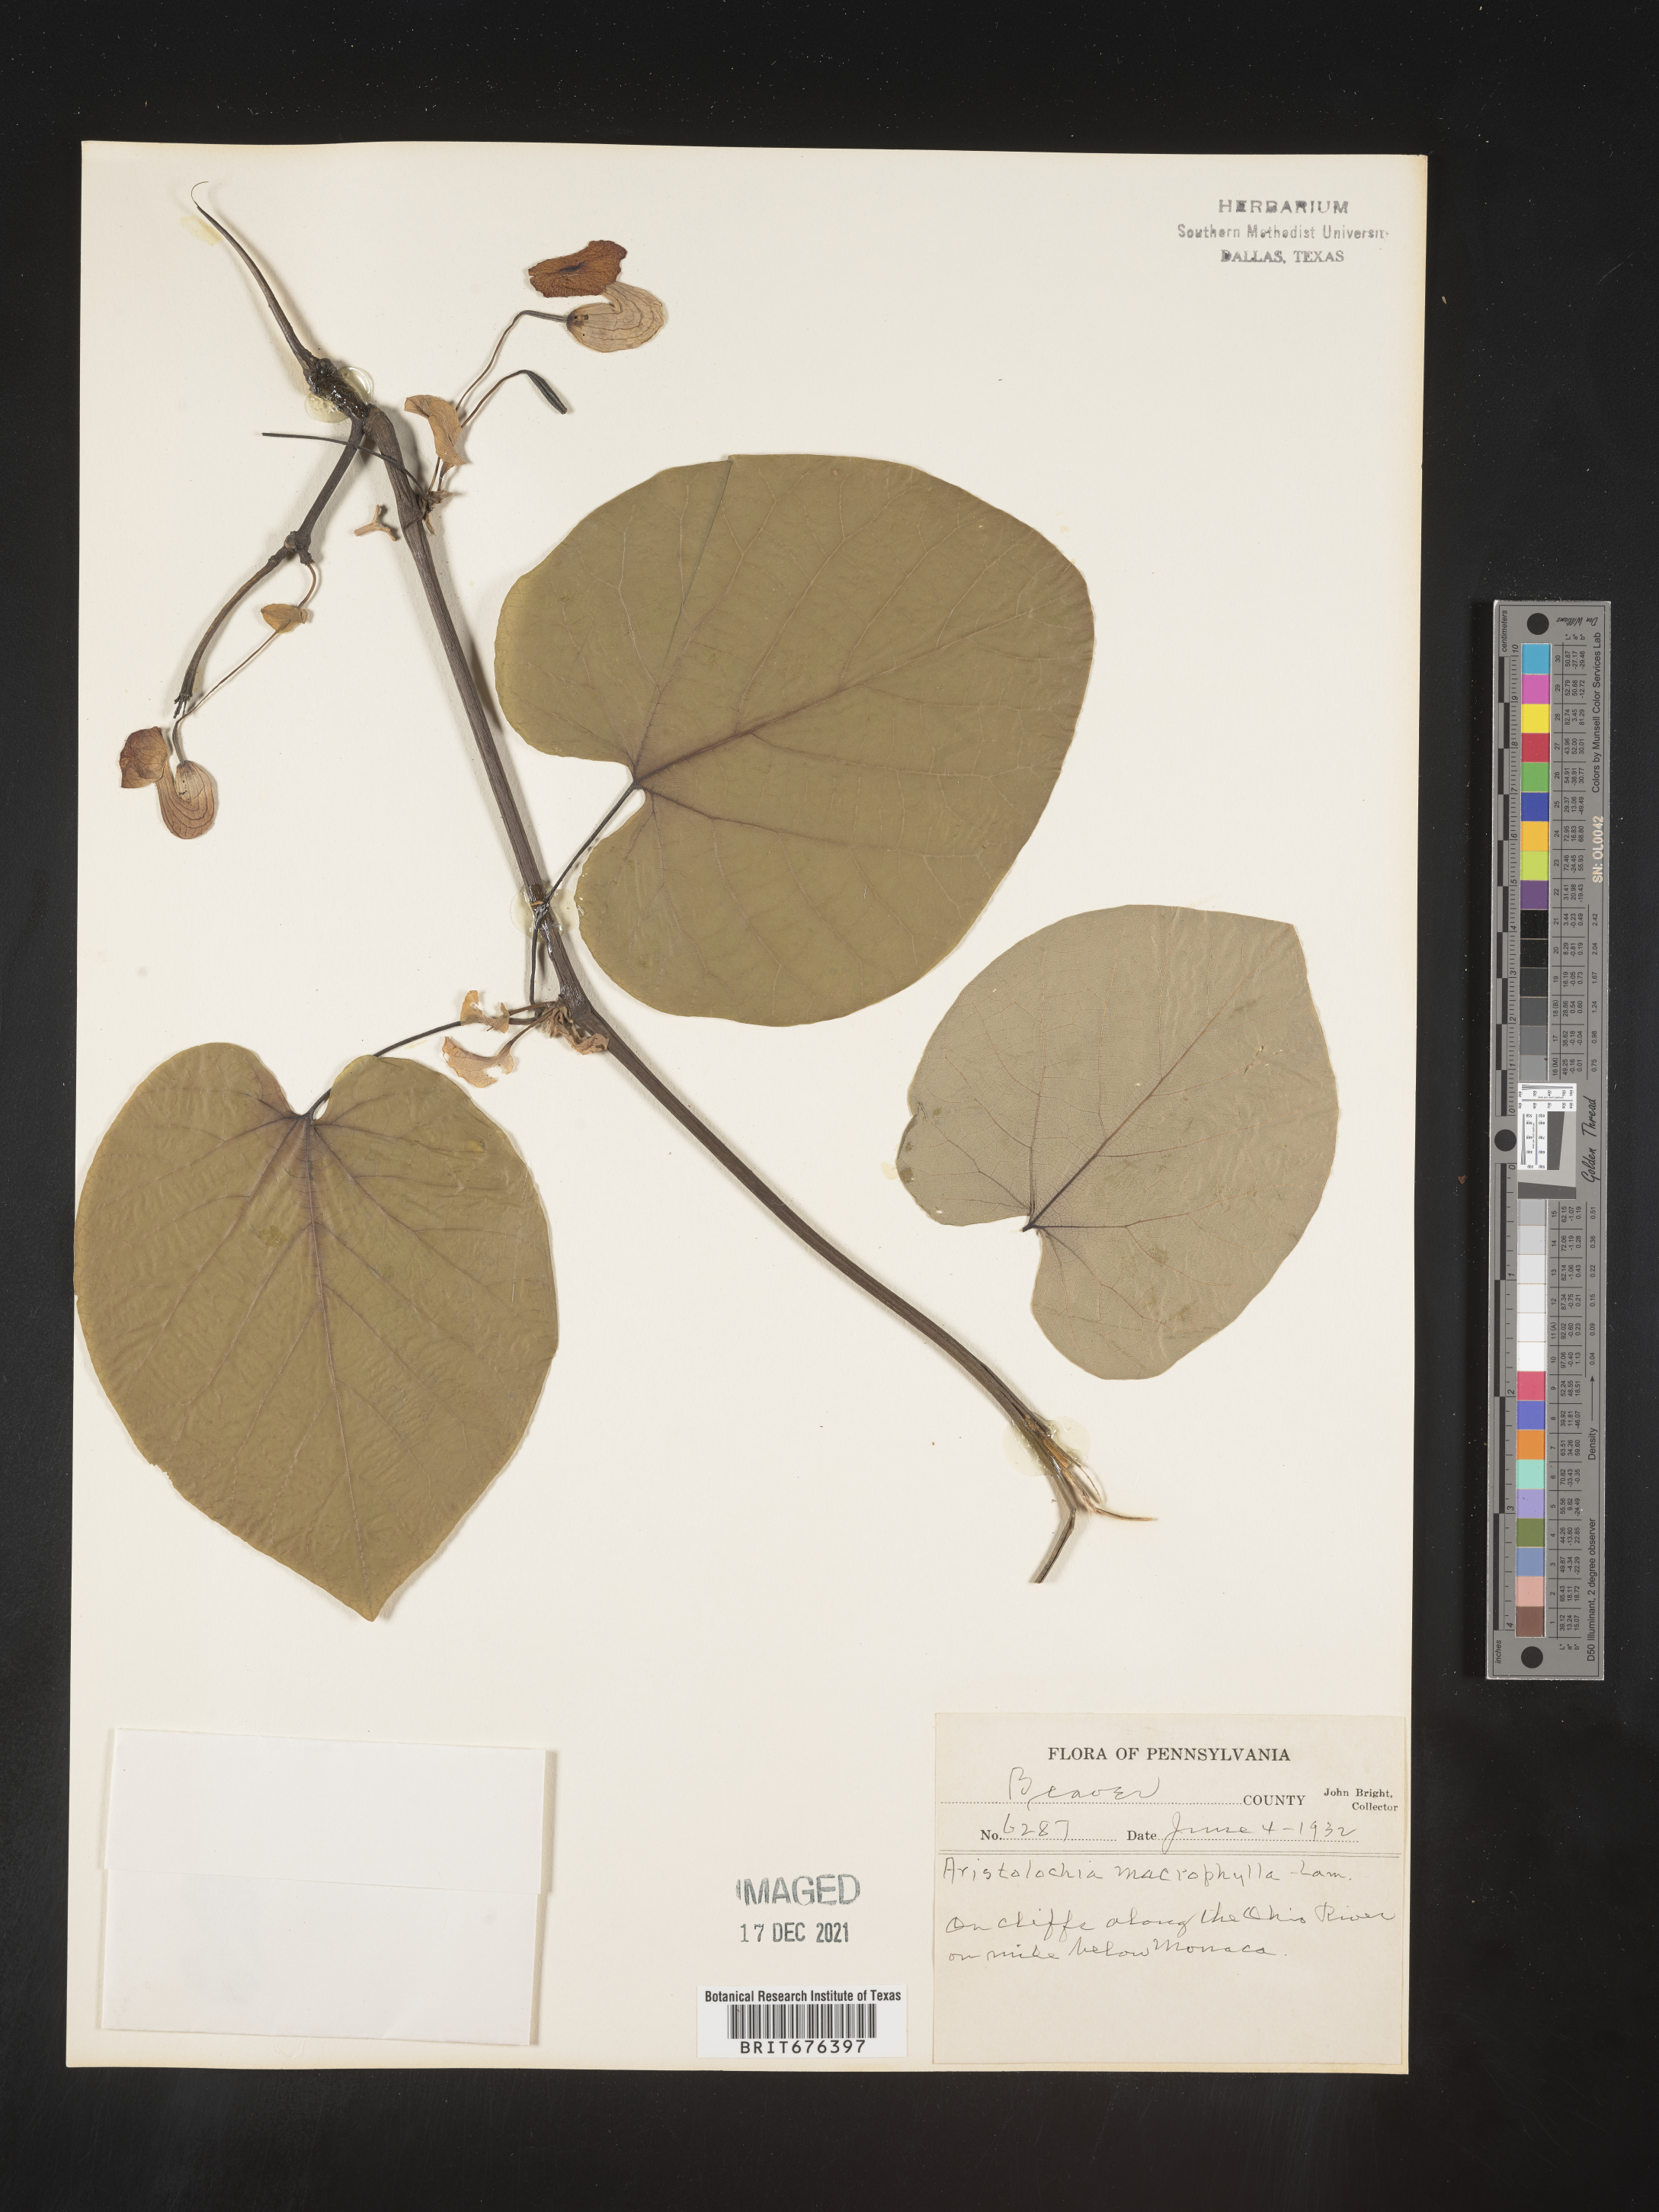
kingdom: Plantae
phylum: Tracheophyta
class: Magnoliopsida
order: Piperales
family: Aristolochiaceae
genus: Isotrema
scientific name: Isotrema macrophyllum
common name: Dutchman's-pipe
